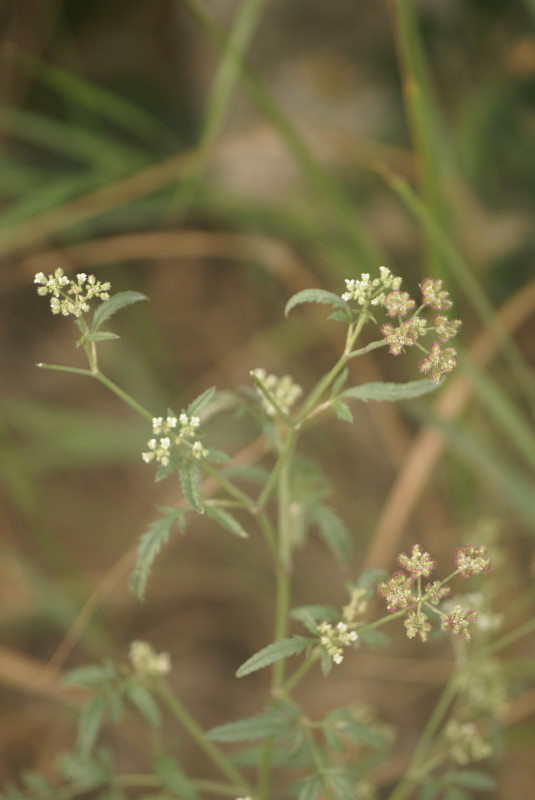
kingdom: Plantae
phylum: Tracheophyta
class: Magnoliopsida
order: Apiales
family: Apiaceae
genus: Torilis
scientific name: Torilis arvensis
